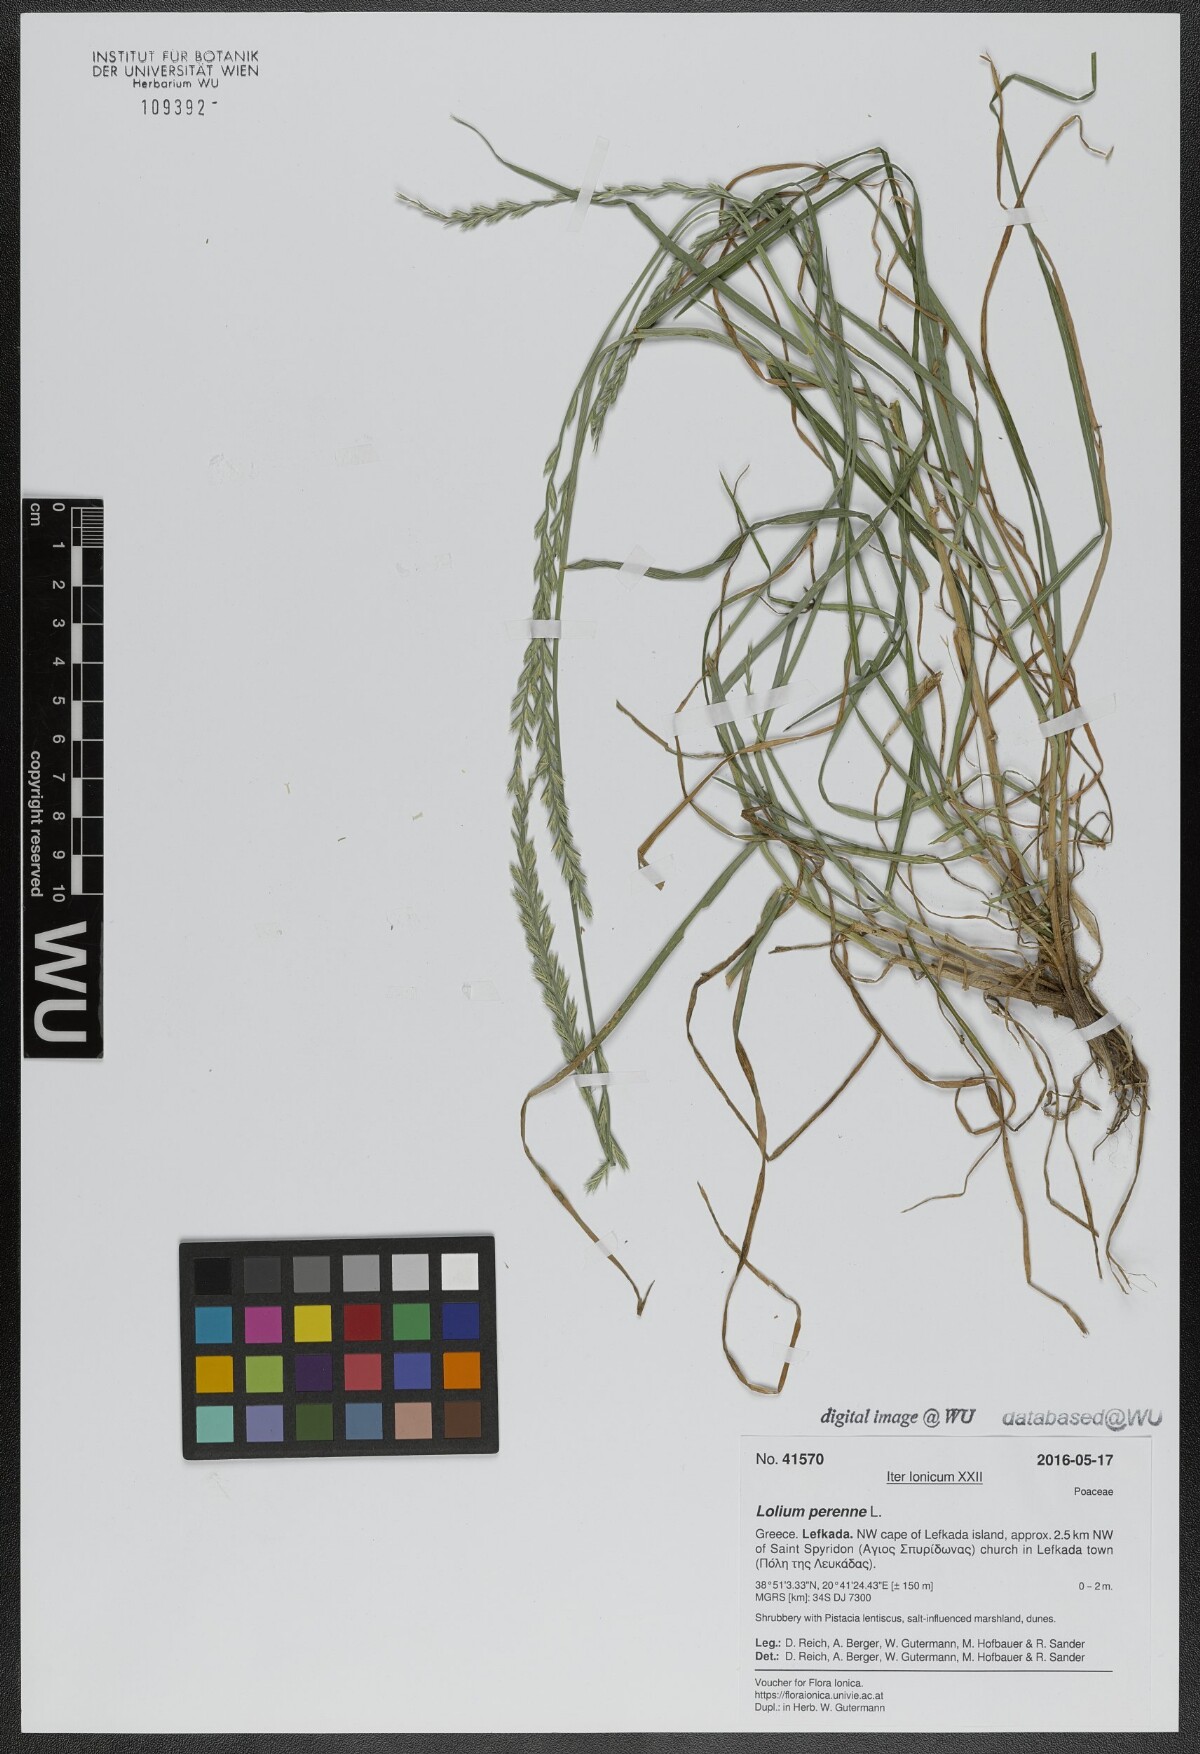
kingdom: Plantae
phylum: Tracheophyta
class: Liliopsida
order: Poales
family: Poaceae
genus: Lolium
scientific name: Lolium perenne
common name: Perennial ryegrass
